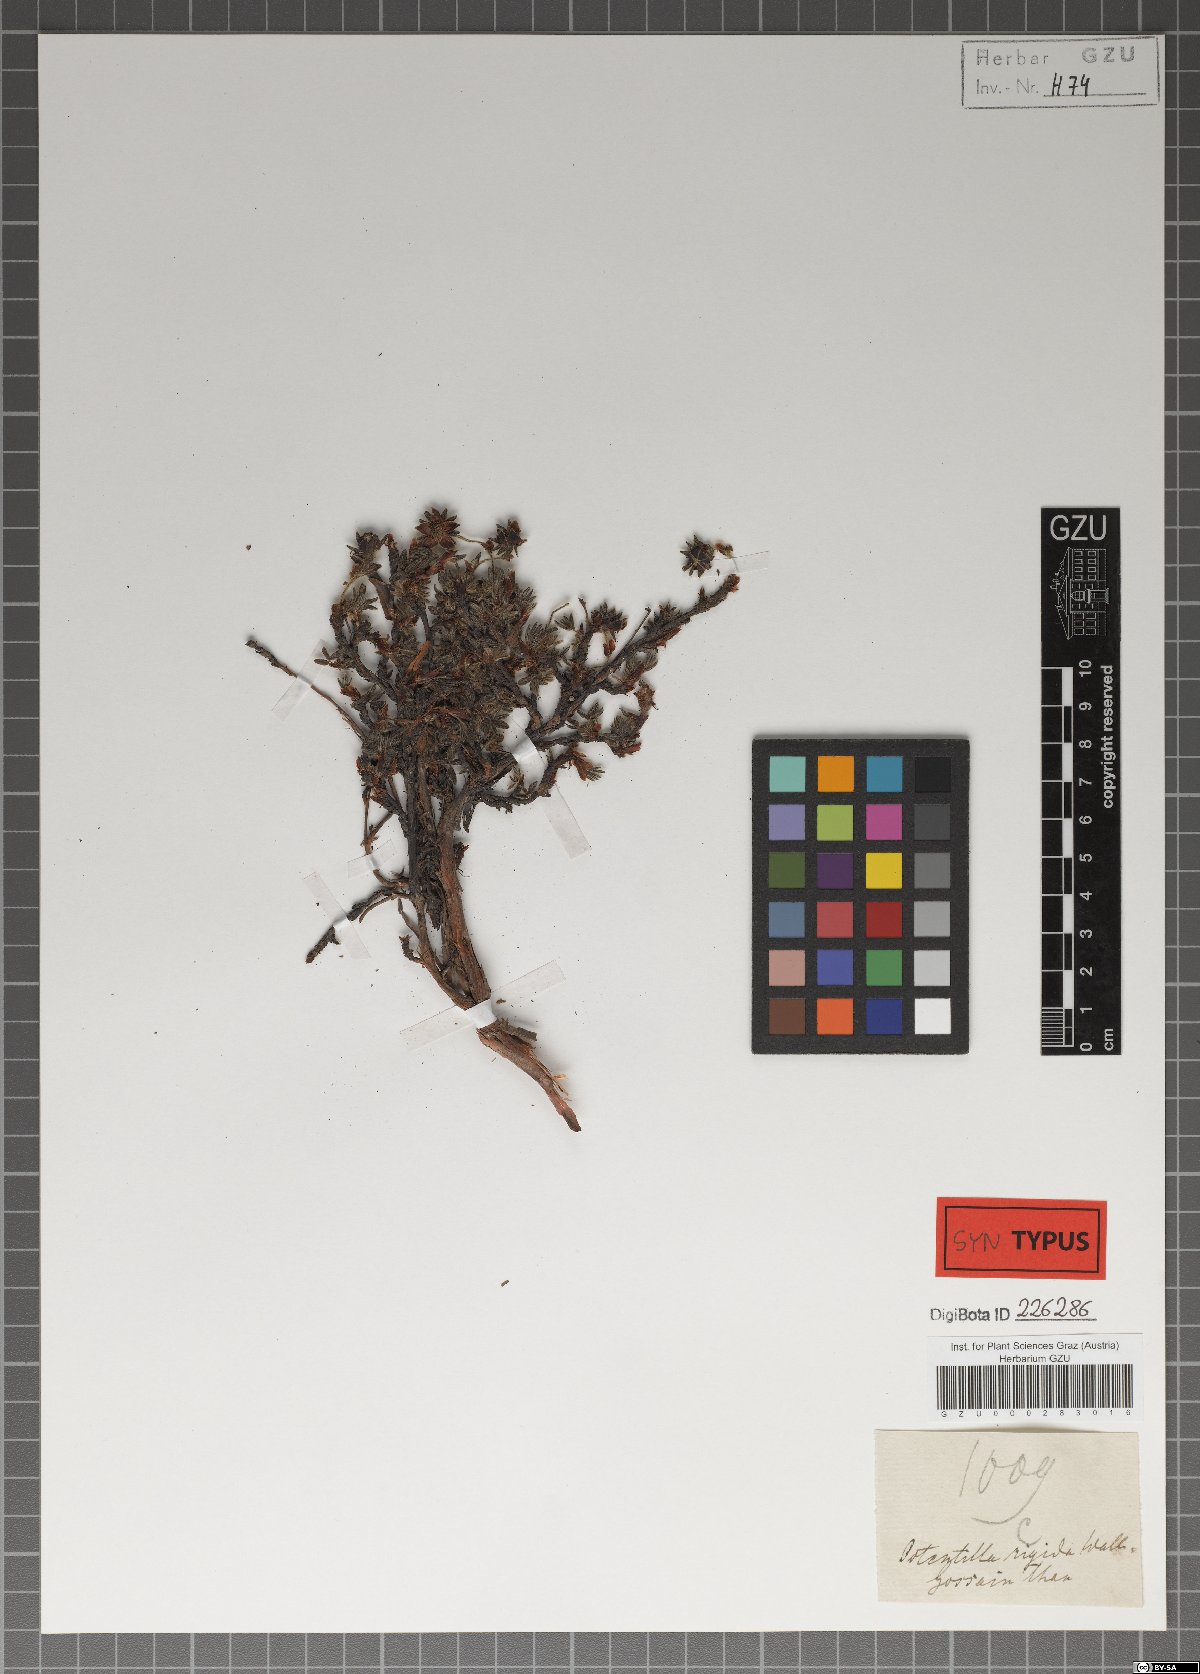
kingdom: Plantae
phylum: Tracheophyta
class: Magnoliopsida
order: Rosales
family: Rosaceae
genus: Dasiphora
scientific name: Dasiphora fruticosa
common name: Shrubby cinquefoil
